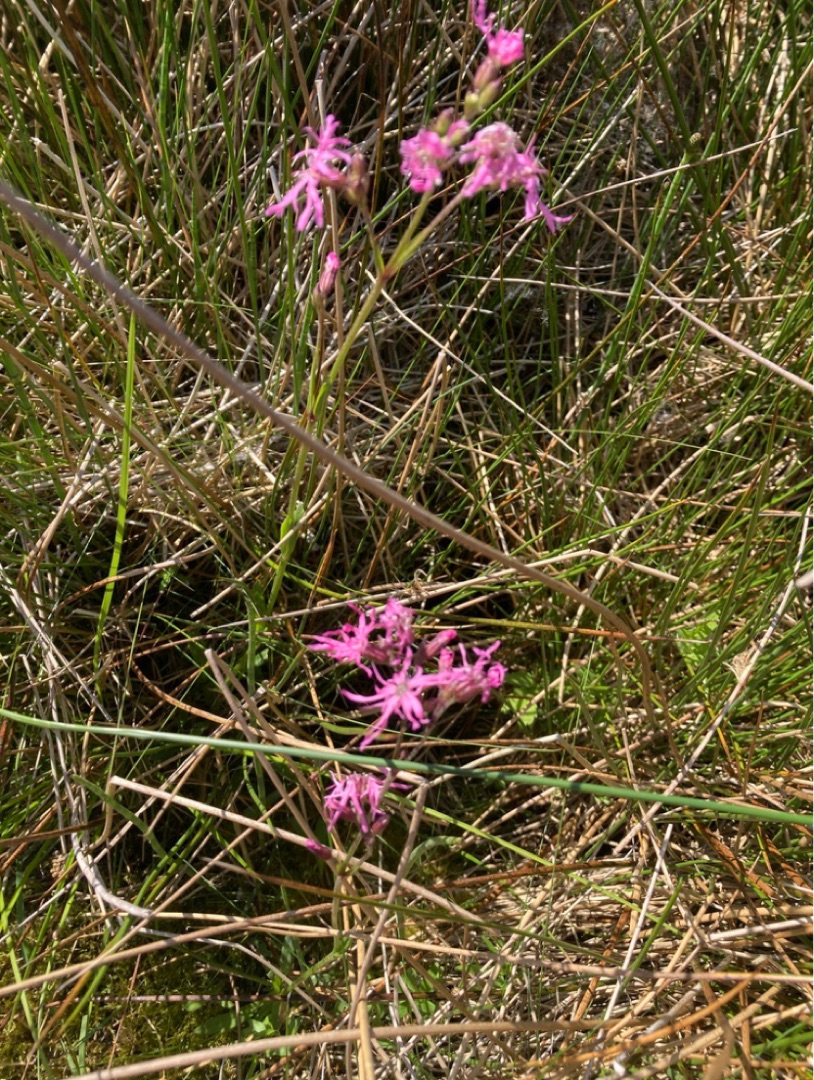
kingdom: Plantae
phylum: Tracheophyta
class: Magnoliopsida
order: Caryophyllales
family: Caryophyllaceae
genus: Silene
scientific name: Silene flos-cuculi
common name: Trævlekrone
